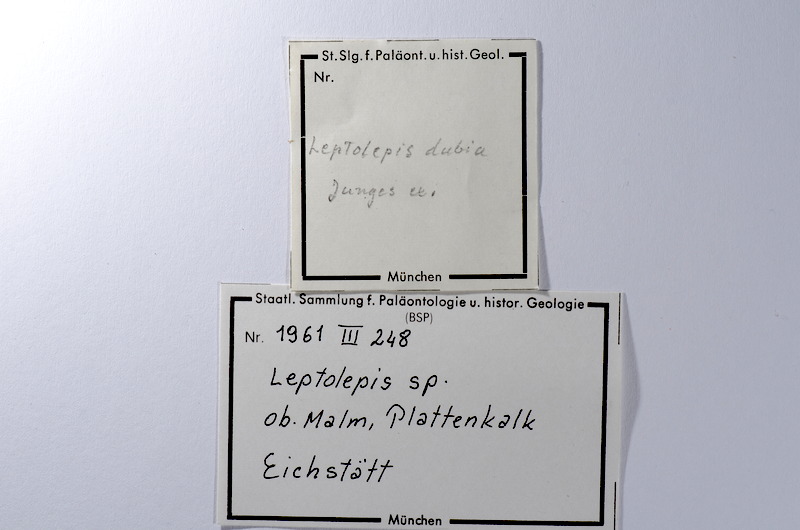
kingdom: Animalia
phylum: Chordata
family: Ascalaboidae
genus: Tharsis
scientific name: Tharsis dubius
